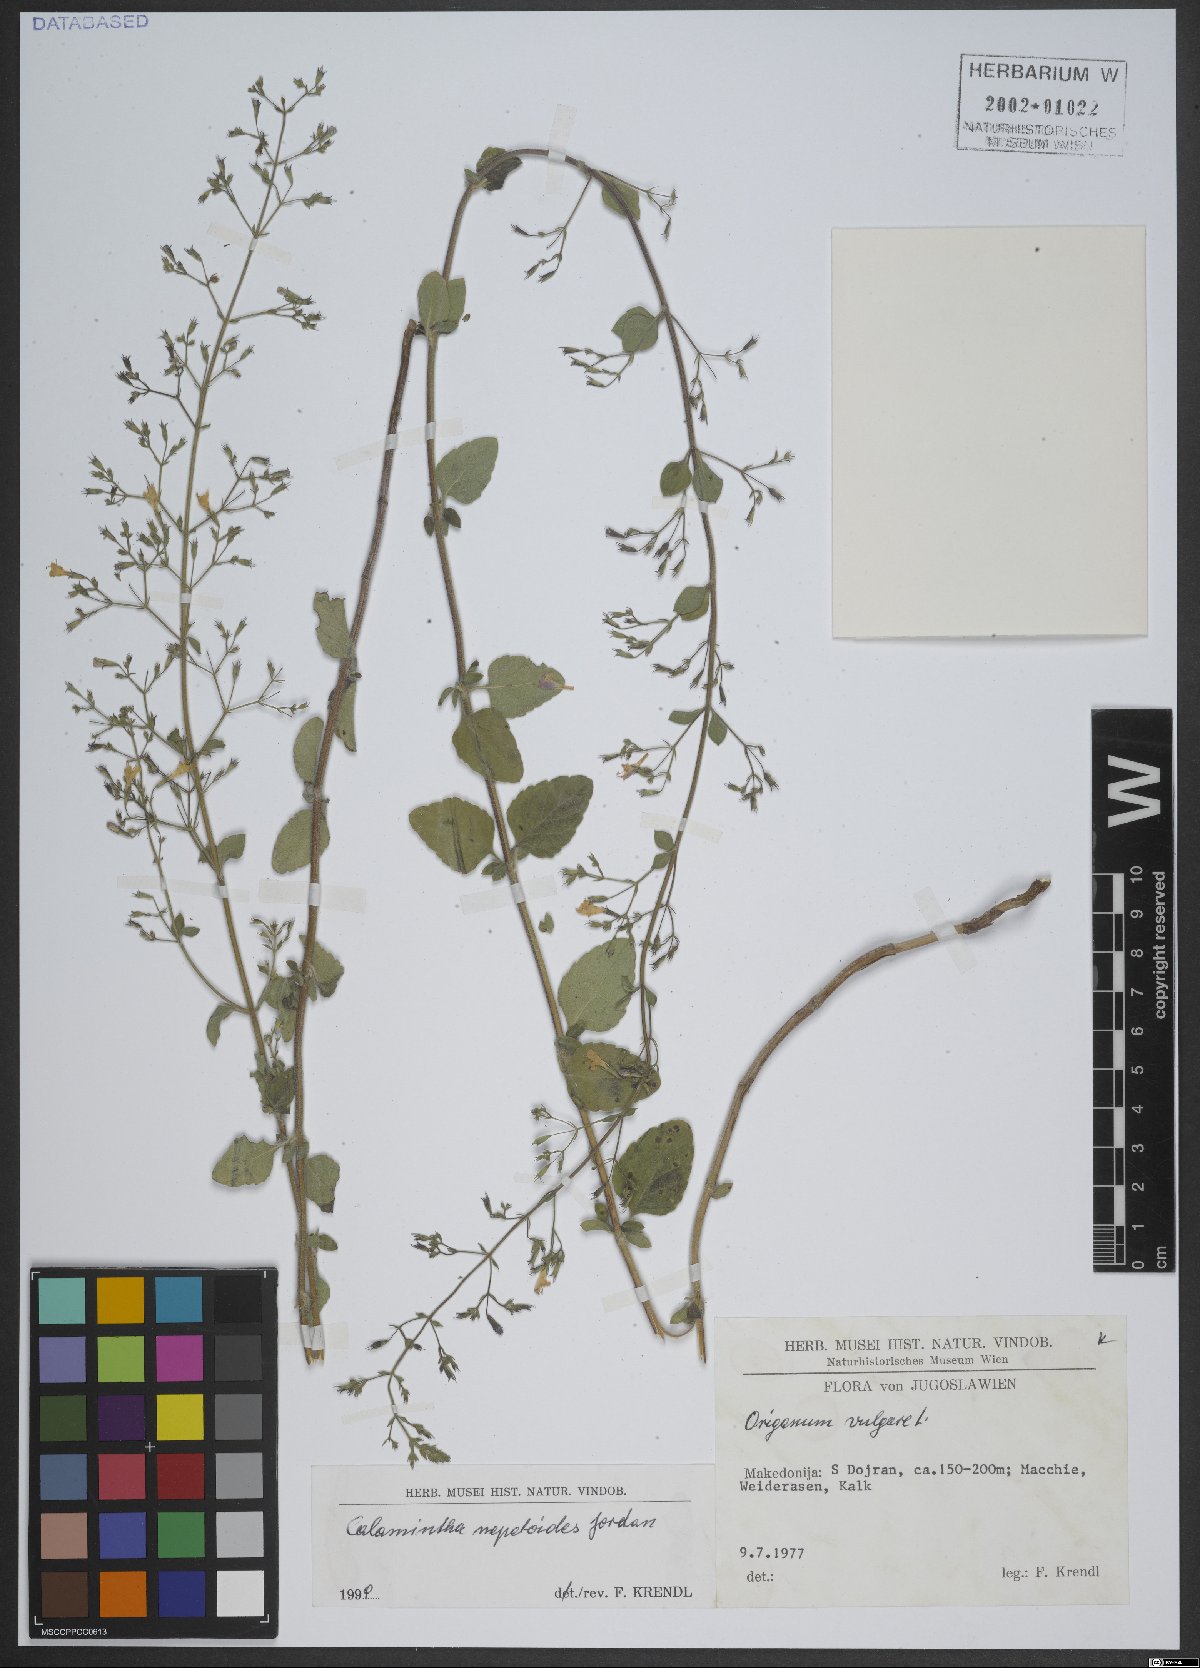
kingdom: Plantae
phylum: Tracheophyta
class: Magnoliopsida
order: Lamiales
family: Lamiaceae
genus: Clinopodium
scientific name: Clinopodium nepeta
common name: Lesser calamint
